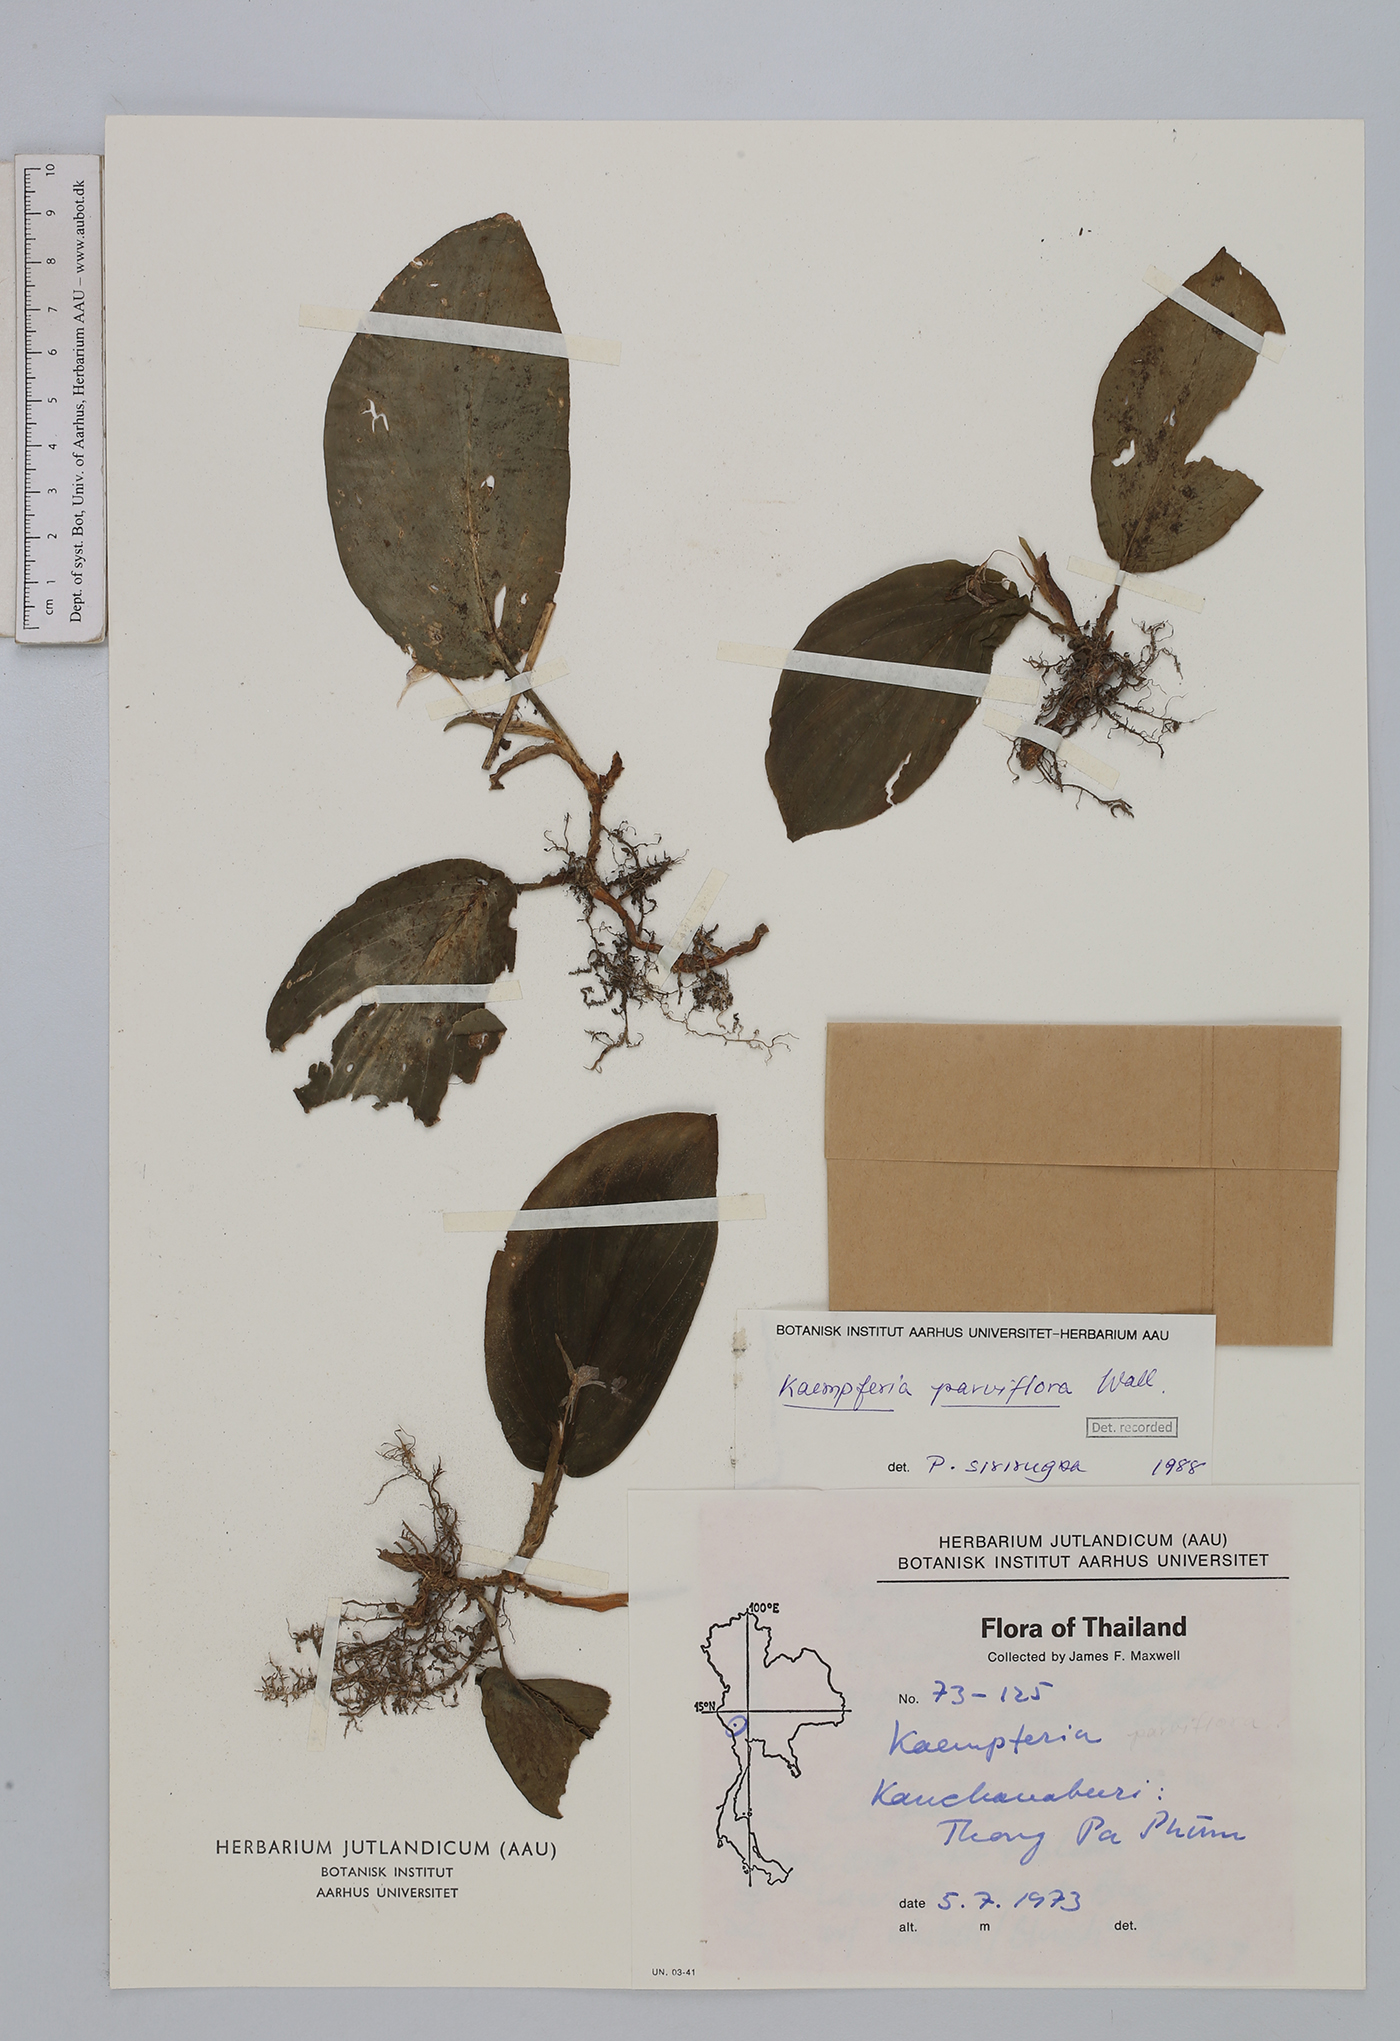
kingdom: Plantae
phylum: Tracheophyta
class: Liliopsida
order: Zingiberales
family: Zingiberaceae
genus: Kaempferia
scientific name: Kaempferia parviflora
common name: Black galingale
